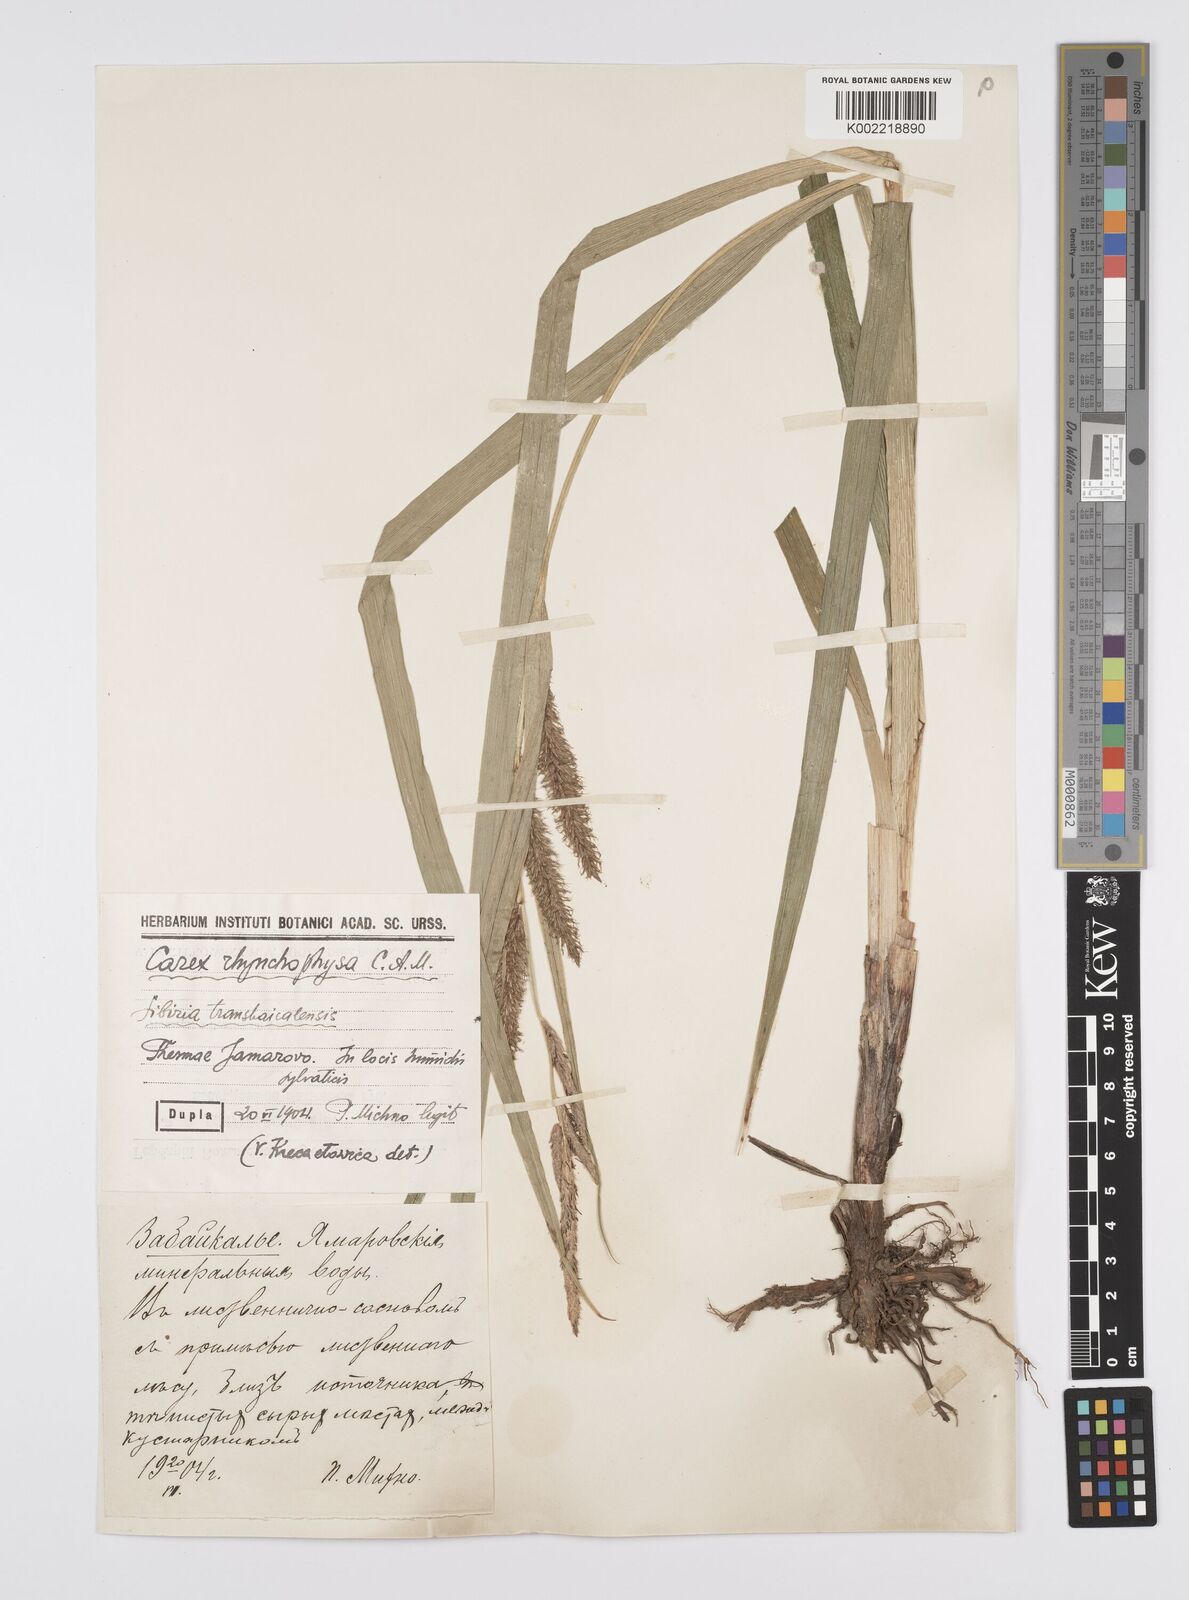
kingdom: Plantae
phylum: Tracheophyta
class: Liliopsida
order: Poales
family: Cyperaceae
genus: Carex
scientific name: Carex utriculata
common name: Beaked sedge
